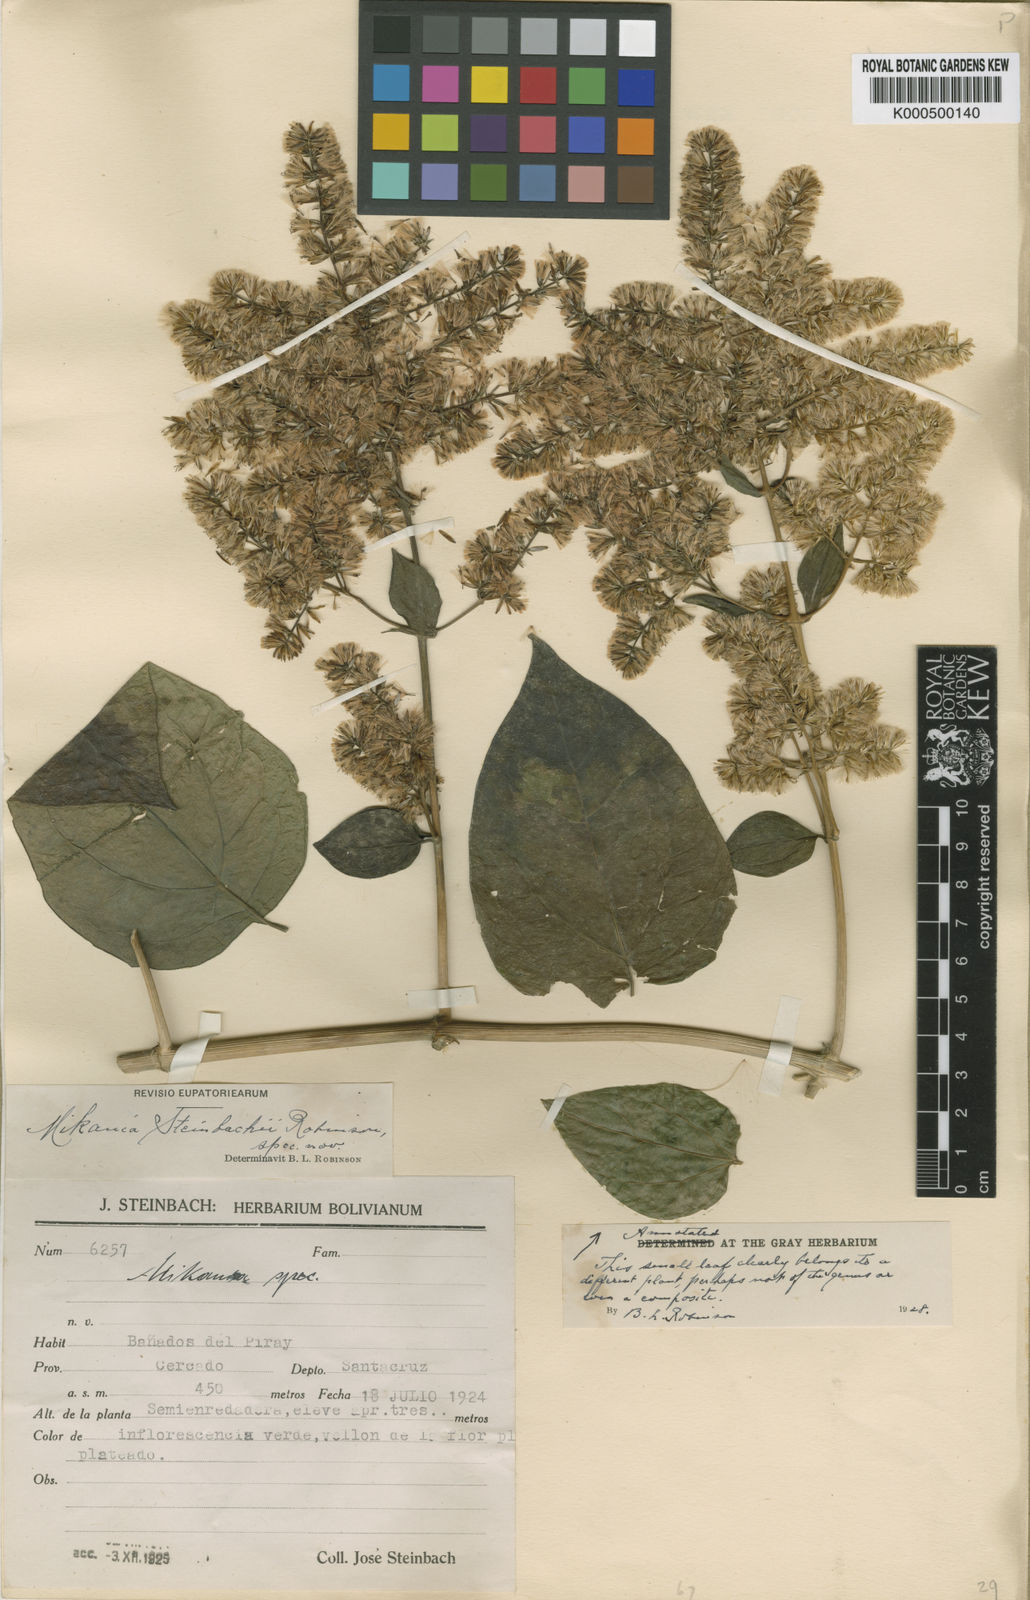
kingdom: Plantae
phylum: Tracheophyta
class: Magnoliopsida
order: Asterales
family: Asteraceae
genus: Mikania
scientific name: Mikania steinbachii
